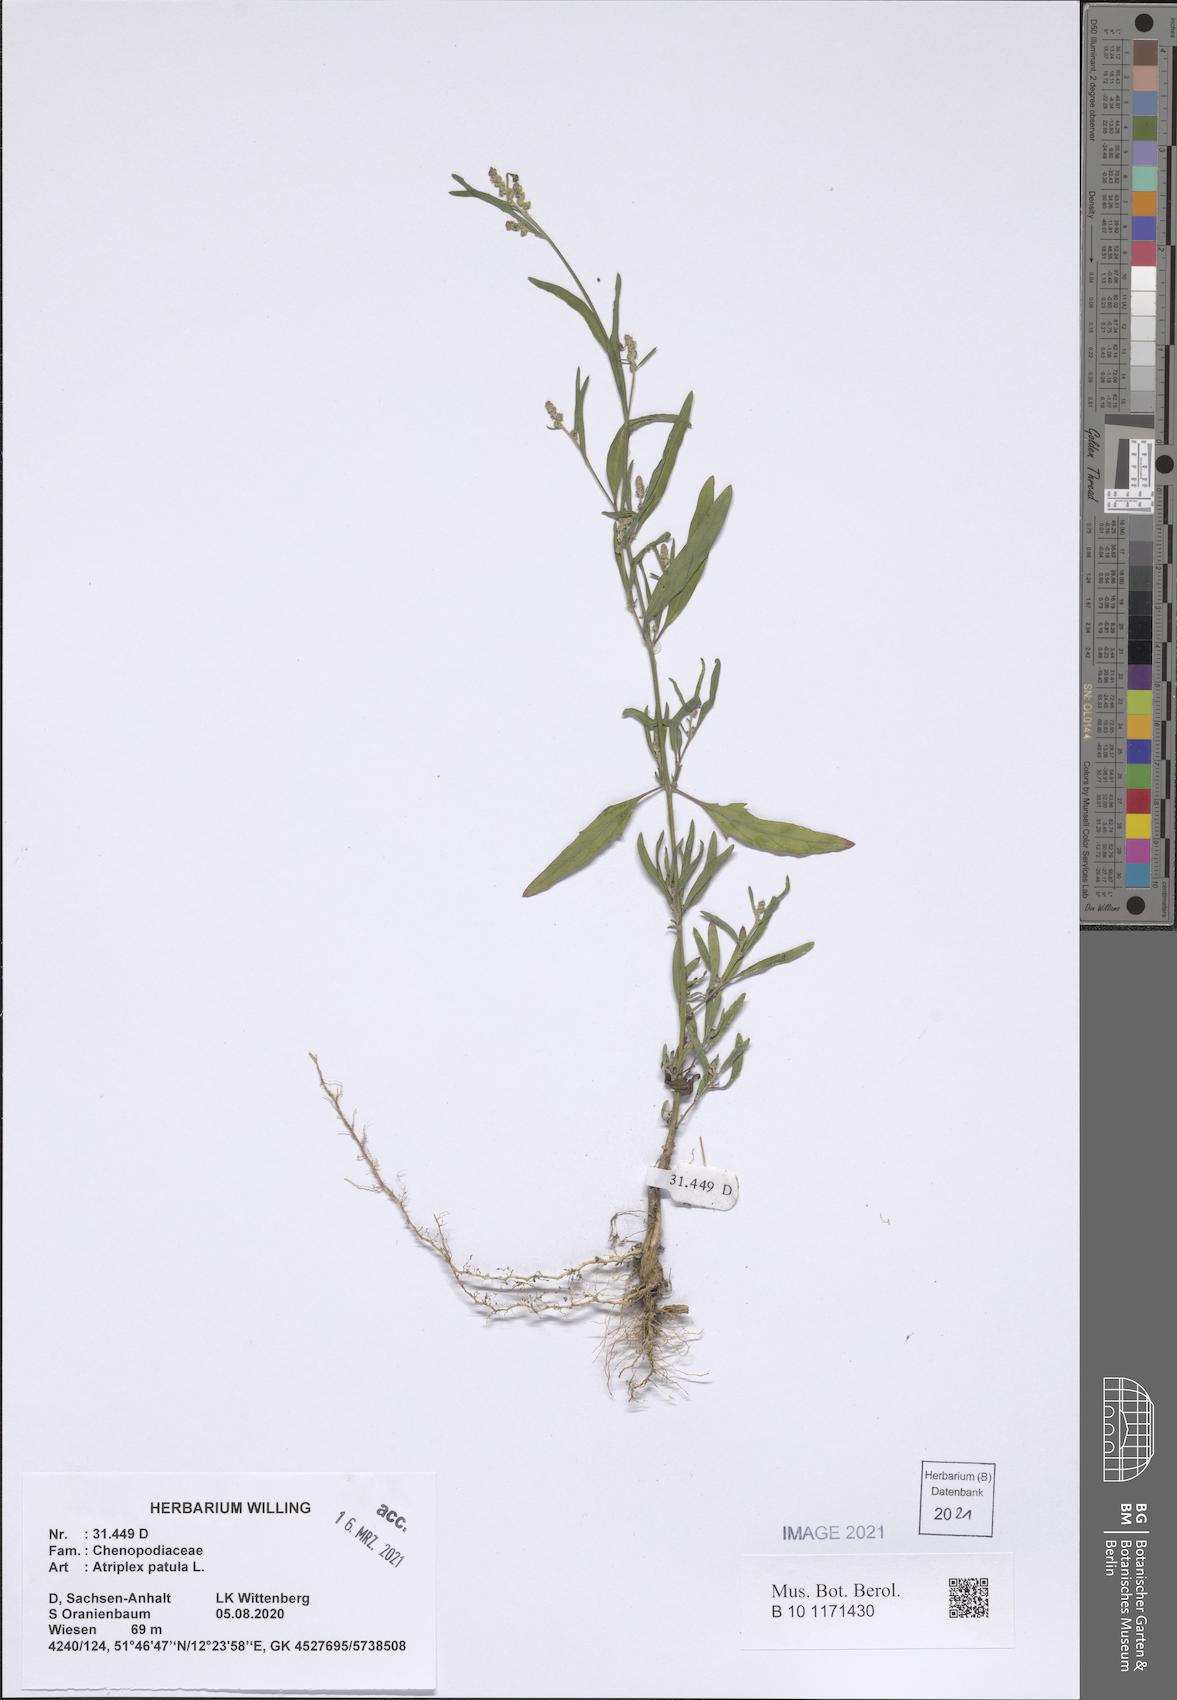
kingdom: Plantae
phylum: Tracheophyta
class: Magnoliopsida
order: Caryophyllales
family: Amaranthaceae
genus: Atriplex
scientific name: Atriplex patula
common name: Common orache
